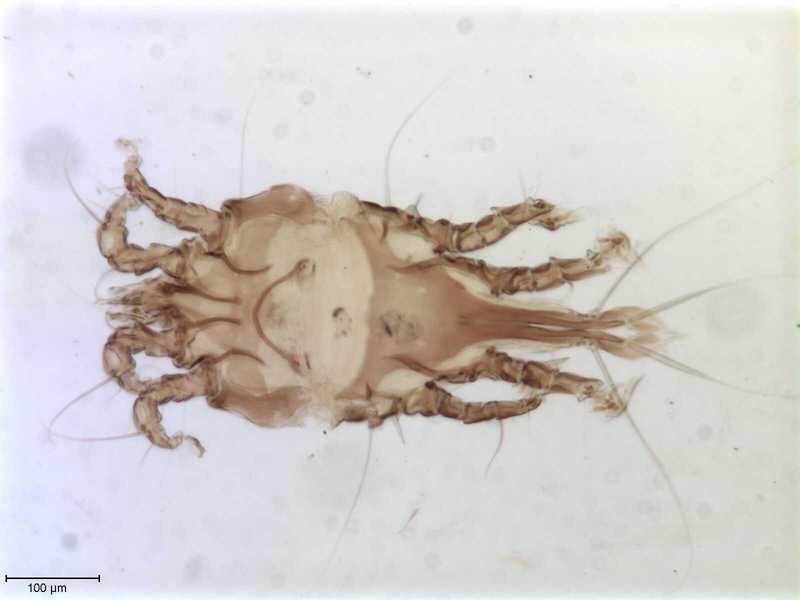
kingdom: Animalia
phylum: Arthropoda
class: Arachnida
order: Sarcoptiformes
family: Trouessartiidae
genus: Calcealges
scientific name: Calcealges
